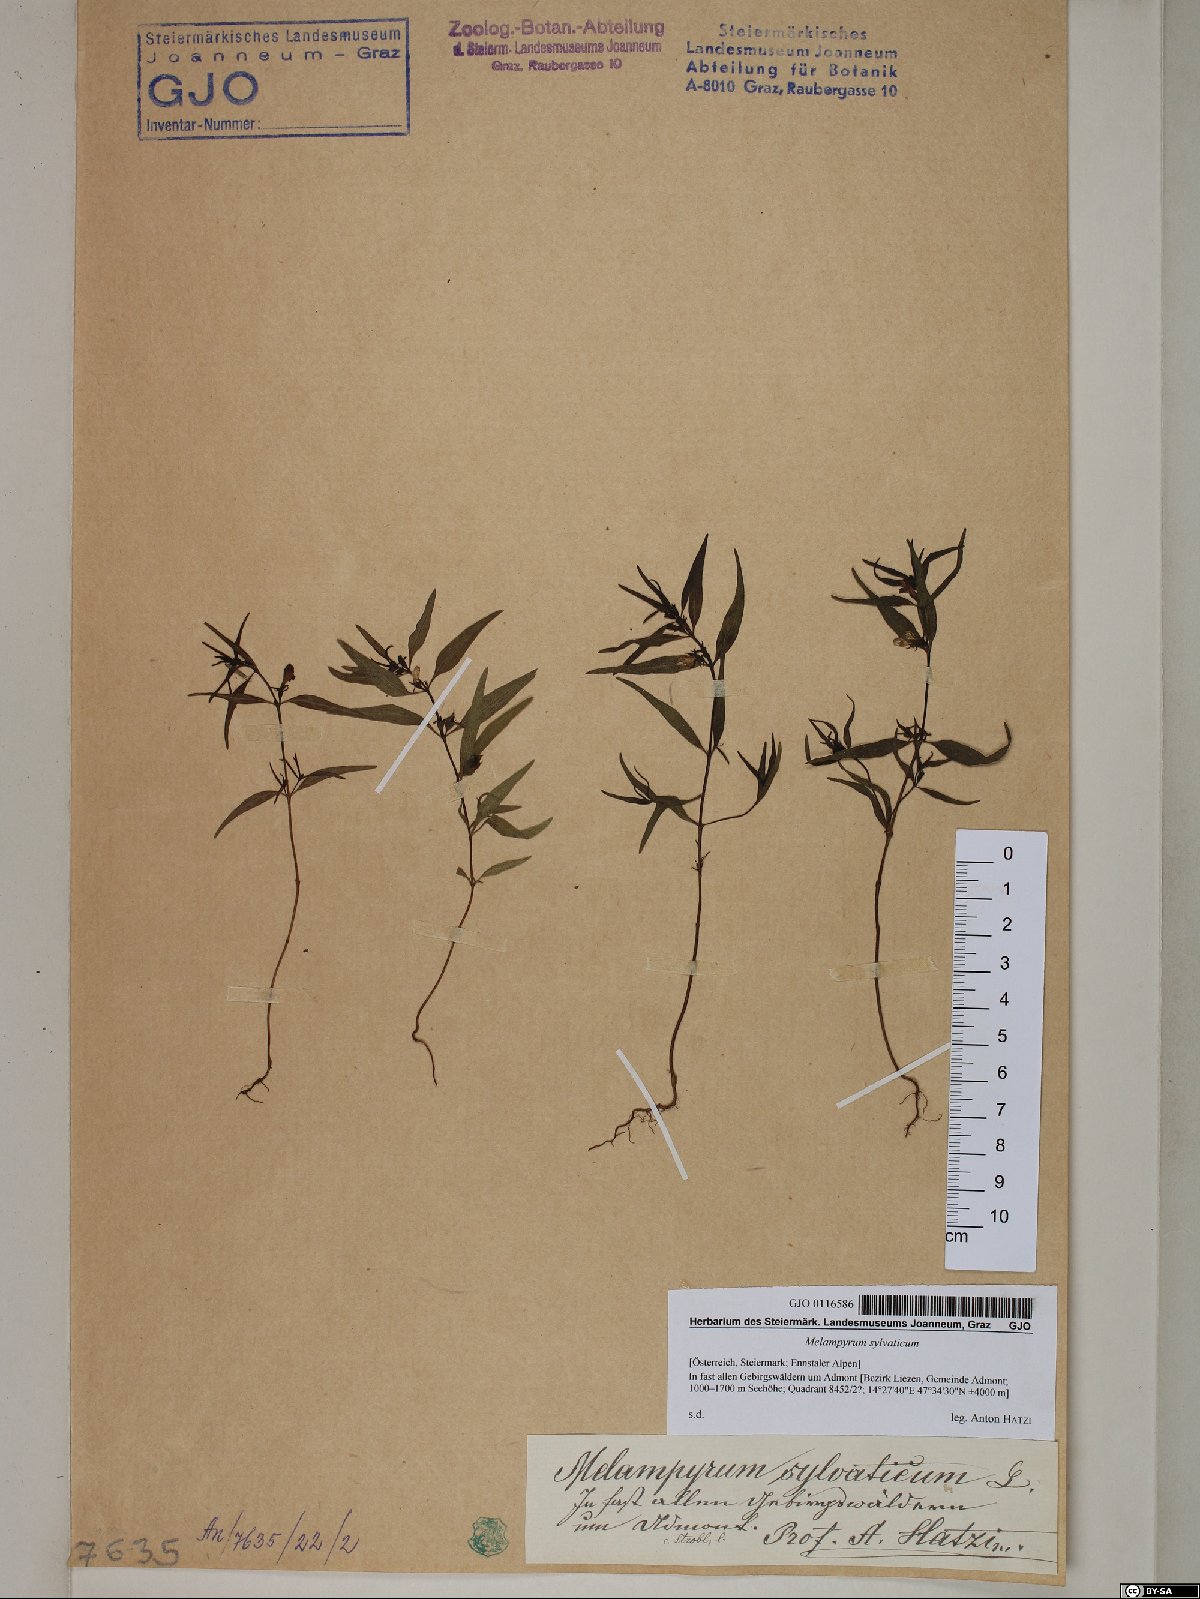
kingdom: Plantae
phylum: Tracheophyta
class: Magnoliopsida
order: Lamiales
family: Orobanchaceae
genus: Melampyrum
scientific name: Melampyrum sylvaticum
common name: Small cow-wheat
